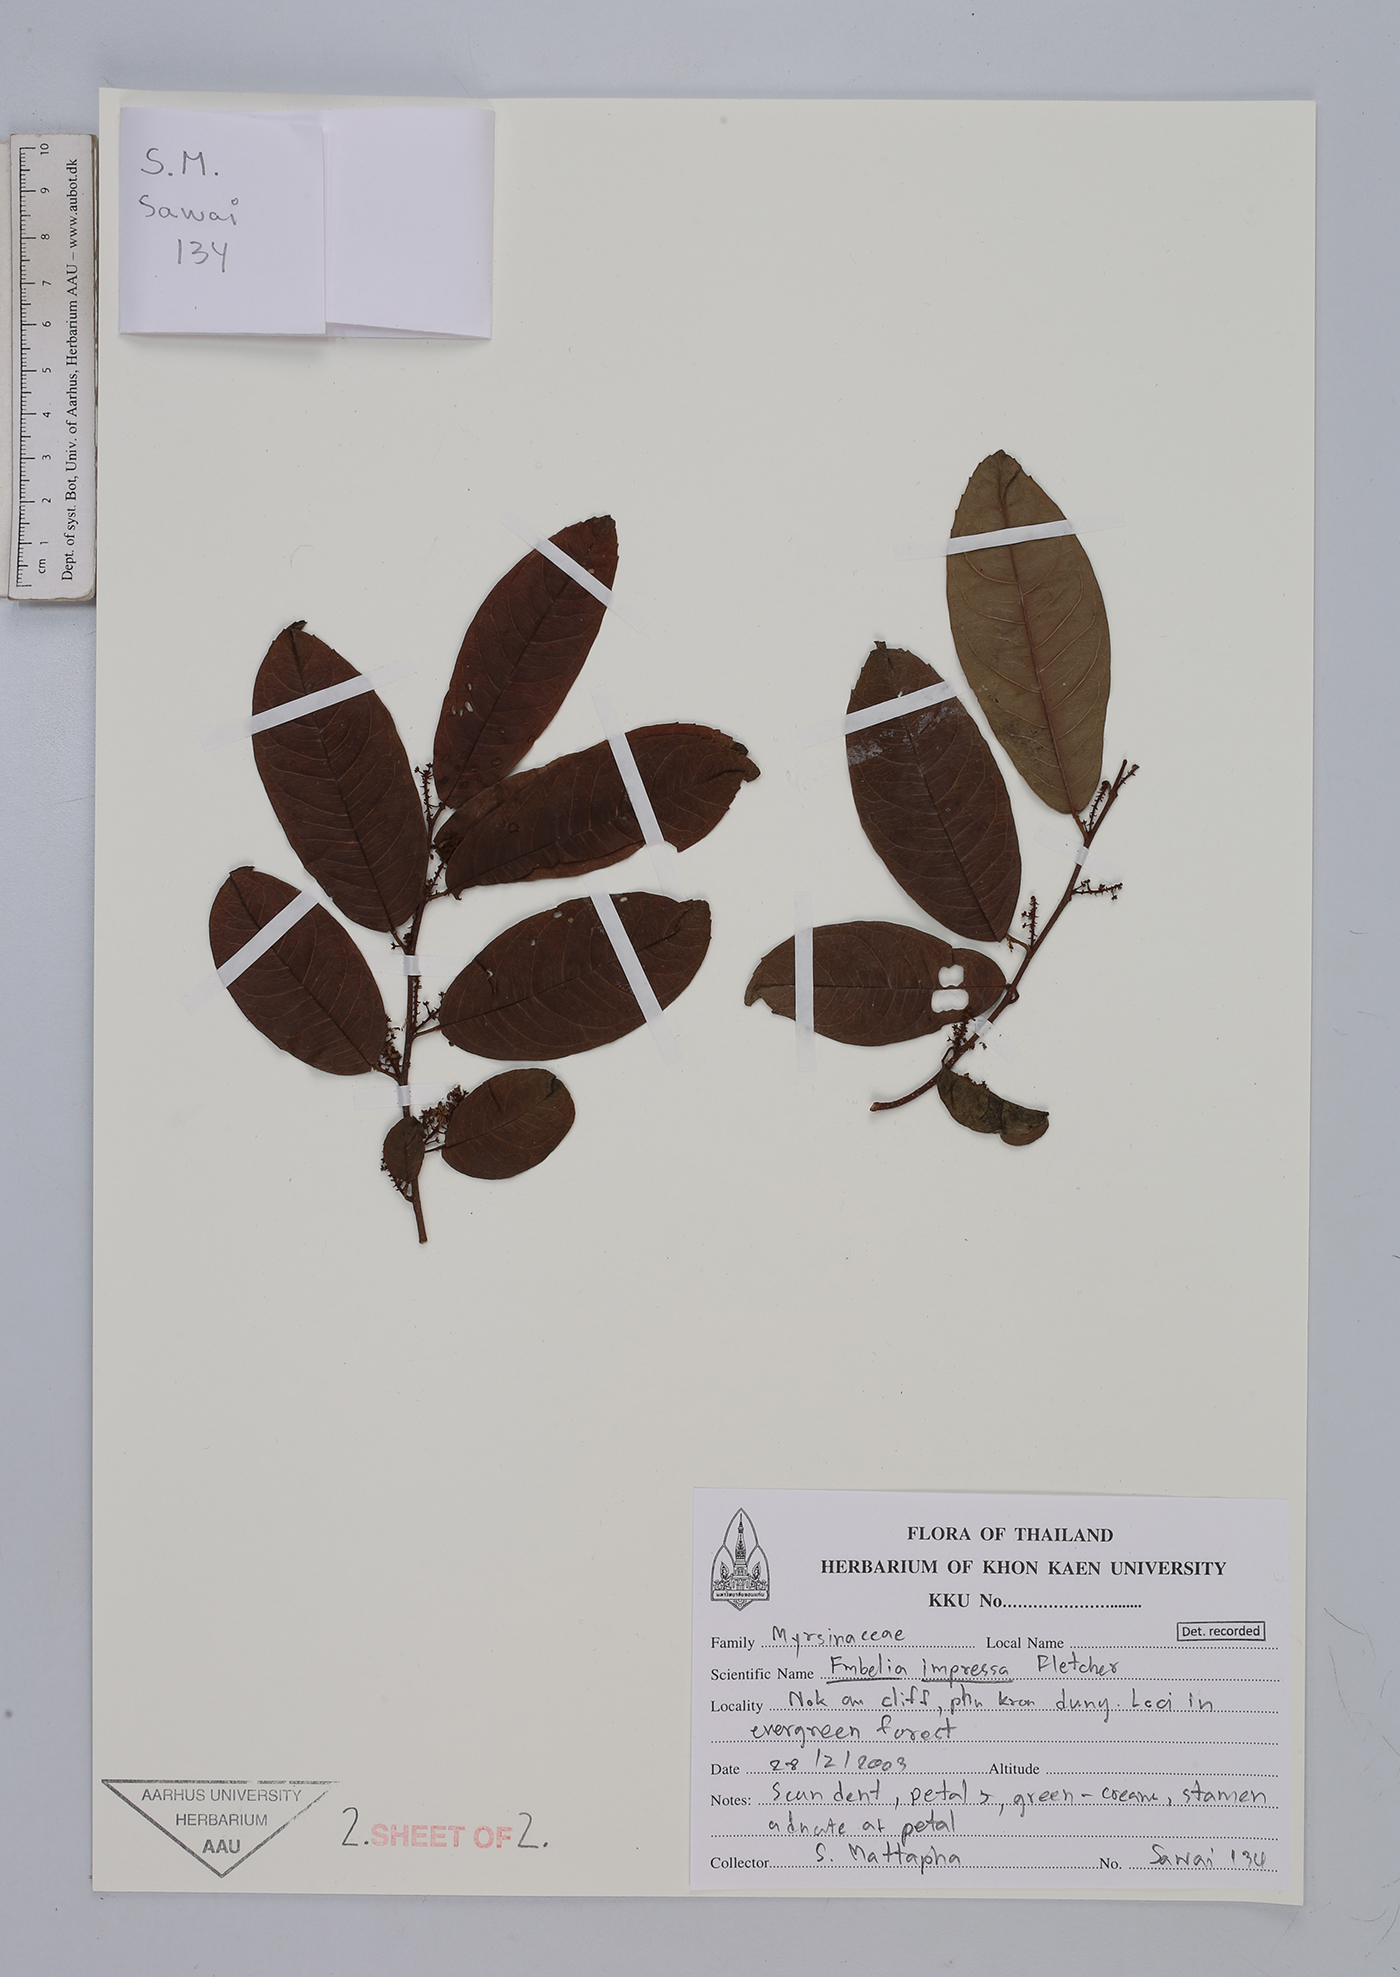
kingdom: Plantae
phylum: Tracheophyta
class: Magnoliopsida
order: Ericales
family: Primulaceae
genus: Embelia
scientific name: Embelia impressa
